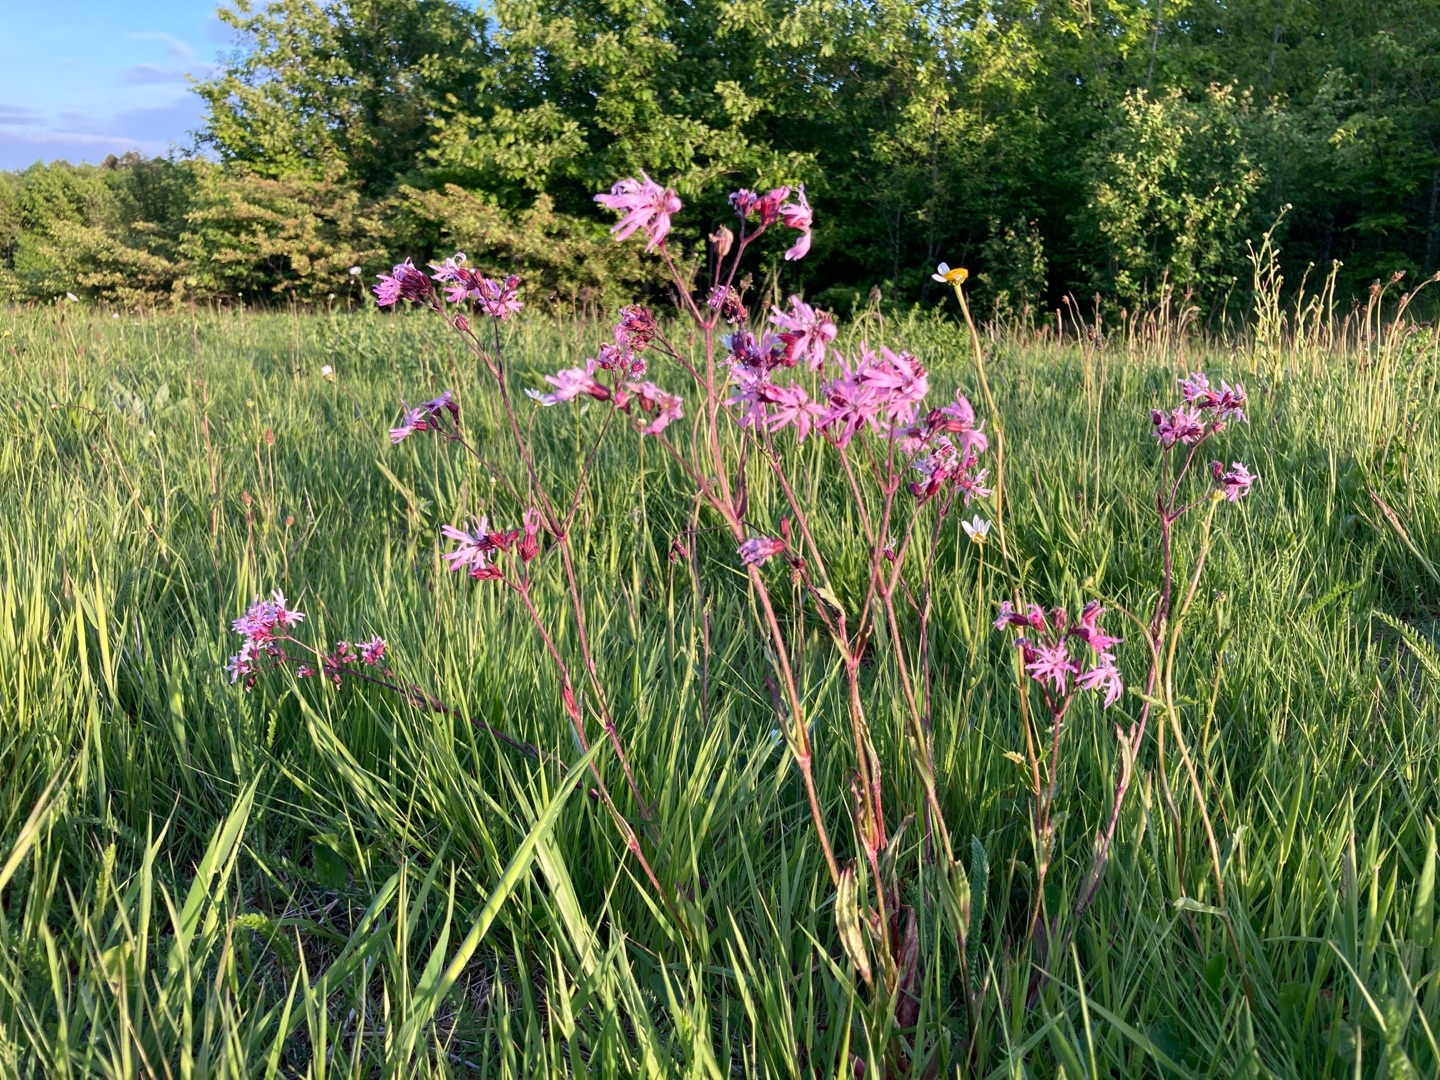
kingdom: Plantae
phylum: Tracheophyta
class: Magnoliopsida
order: Caryophyllales
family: Caryophyllaceae
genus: Silene
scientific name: Silene flos-cuculi
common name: Trævlekrone
